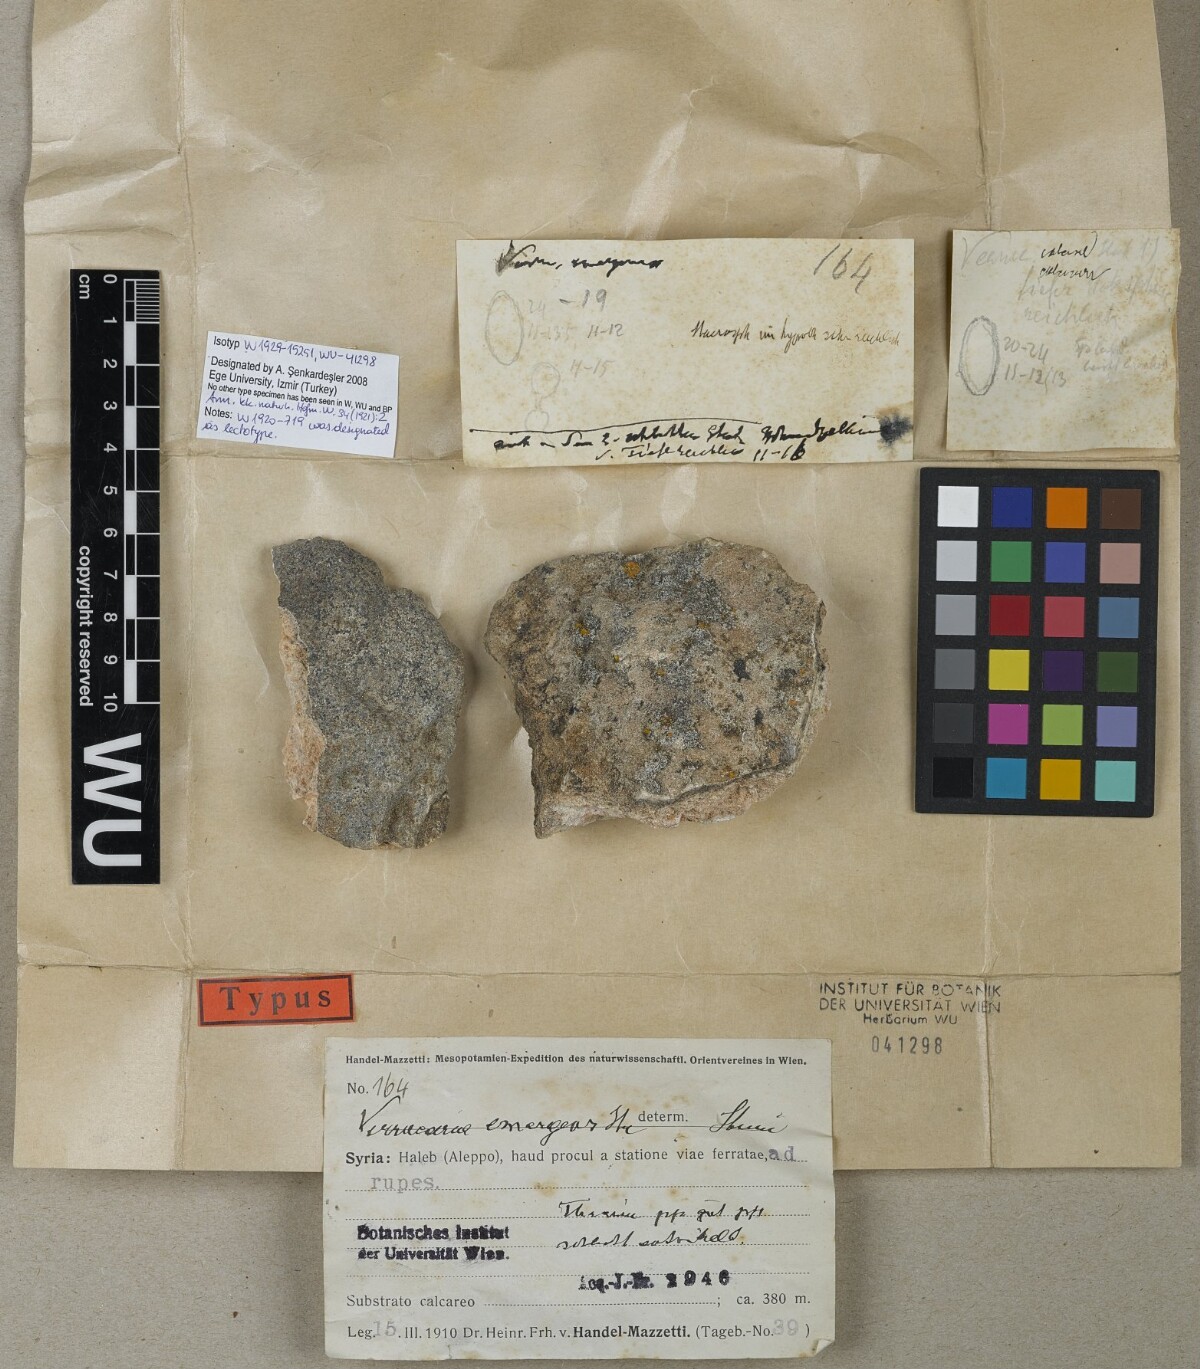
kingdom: Fungi
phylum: Ascomycota
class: Eurotiomycetes
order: Verrucariales
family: Verrucariaceae
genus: Verrucaria
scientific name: Verrucaria
